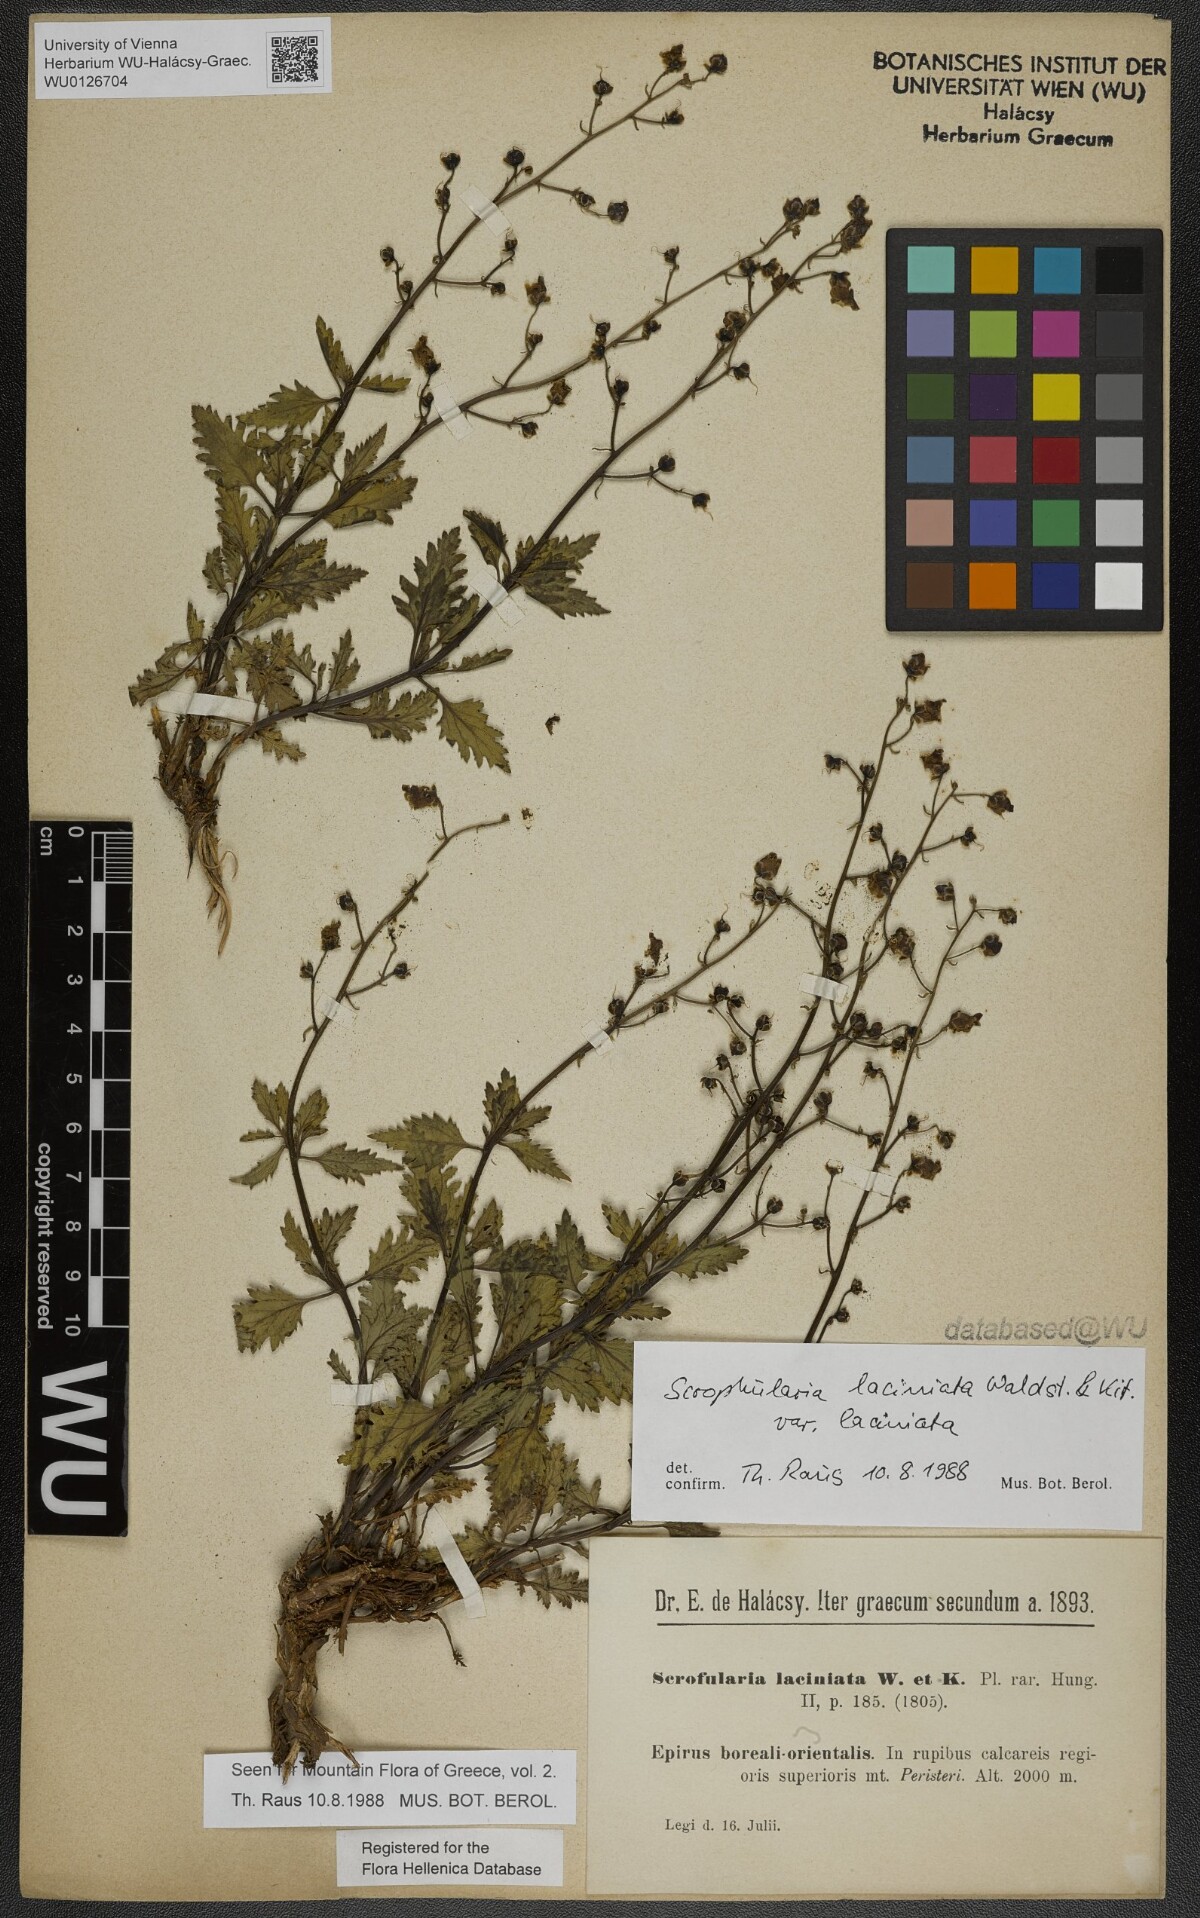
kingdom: Plantae
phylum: Tracheophyta
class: Magnoliopsida
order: Lamiales
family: Scrophulariaceae
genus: Scrophularia
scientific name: Scrophularia laciniata
